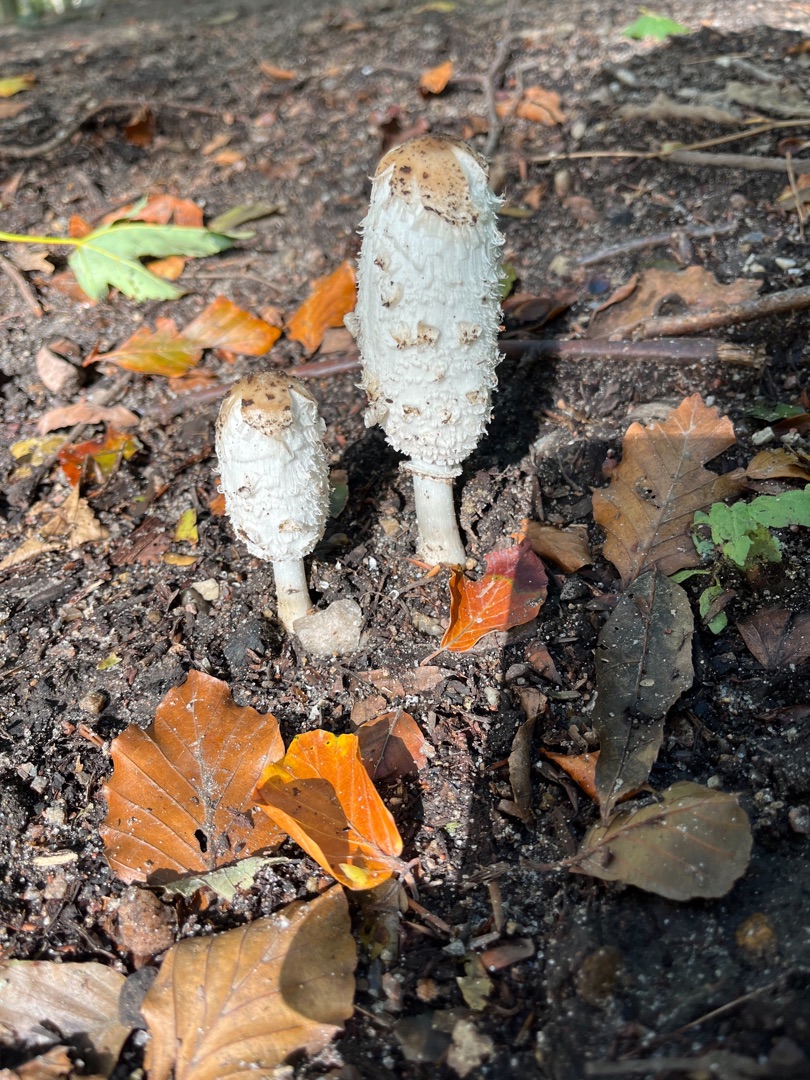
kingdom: Fungi
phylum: Basidiomycota
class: Agaricomycetes
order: Agaricales
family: Agaricaceae
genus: Coprinus
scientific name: Coprinus comatus
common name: Stor parykhat
